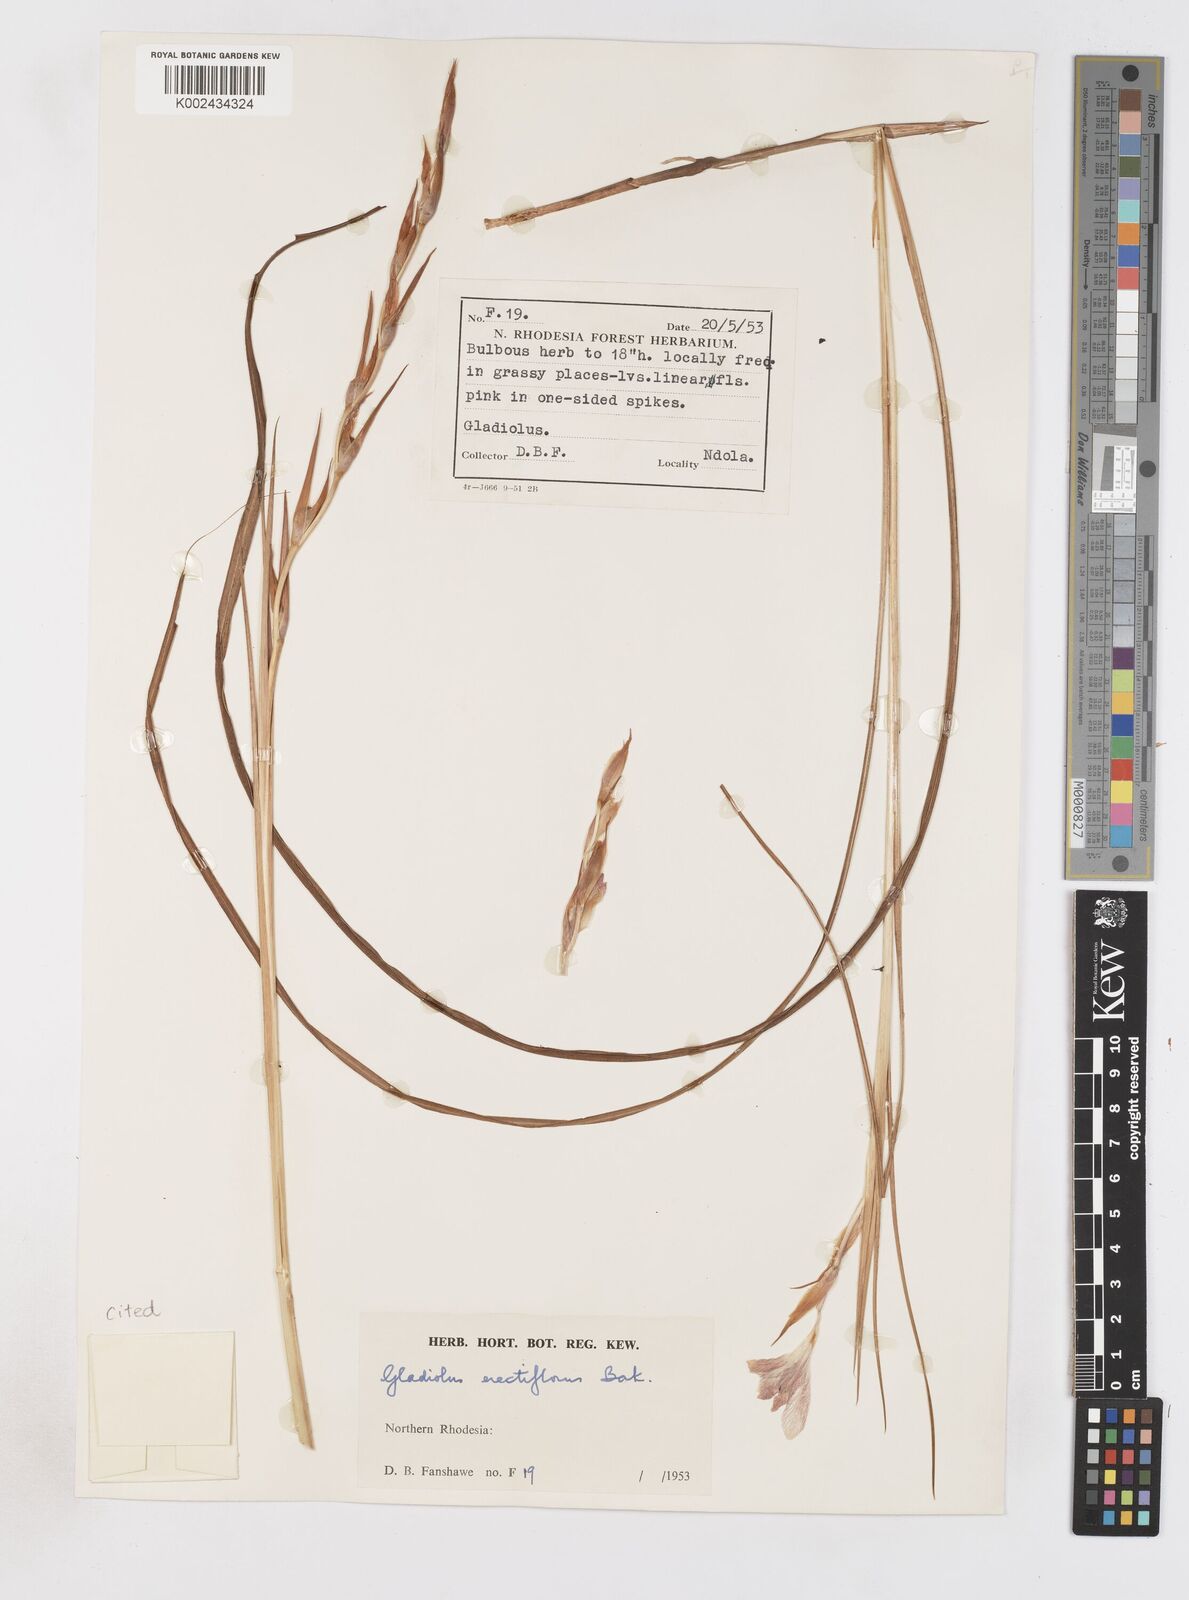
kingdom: Plantae
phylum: Tracheophyta
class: Liliopsida
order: Asparagales
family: Iridaceae
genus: Gladiolus
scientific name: Gladiolus erectiflorus
